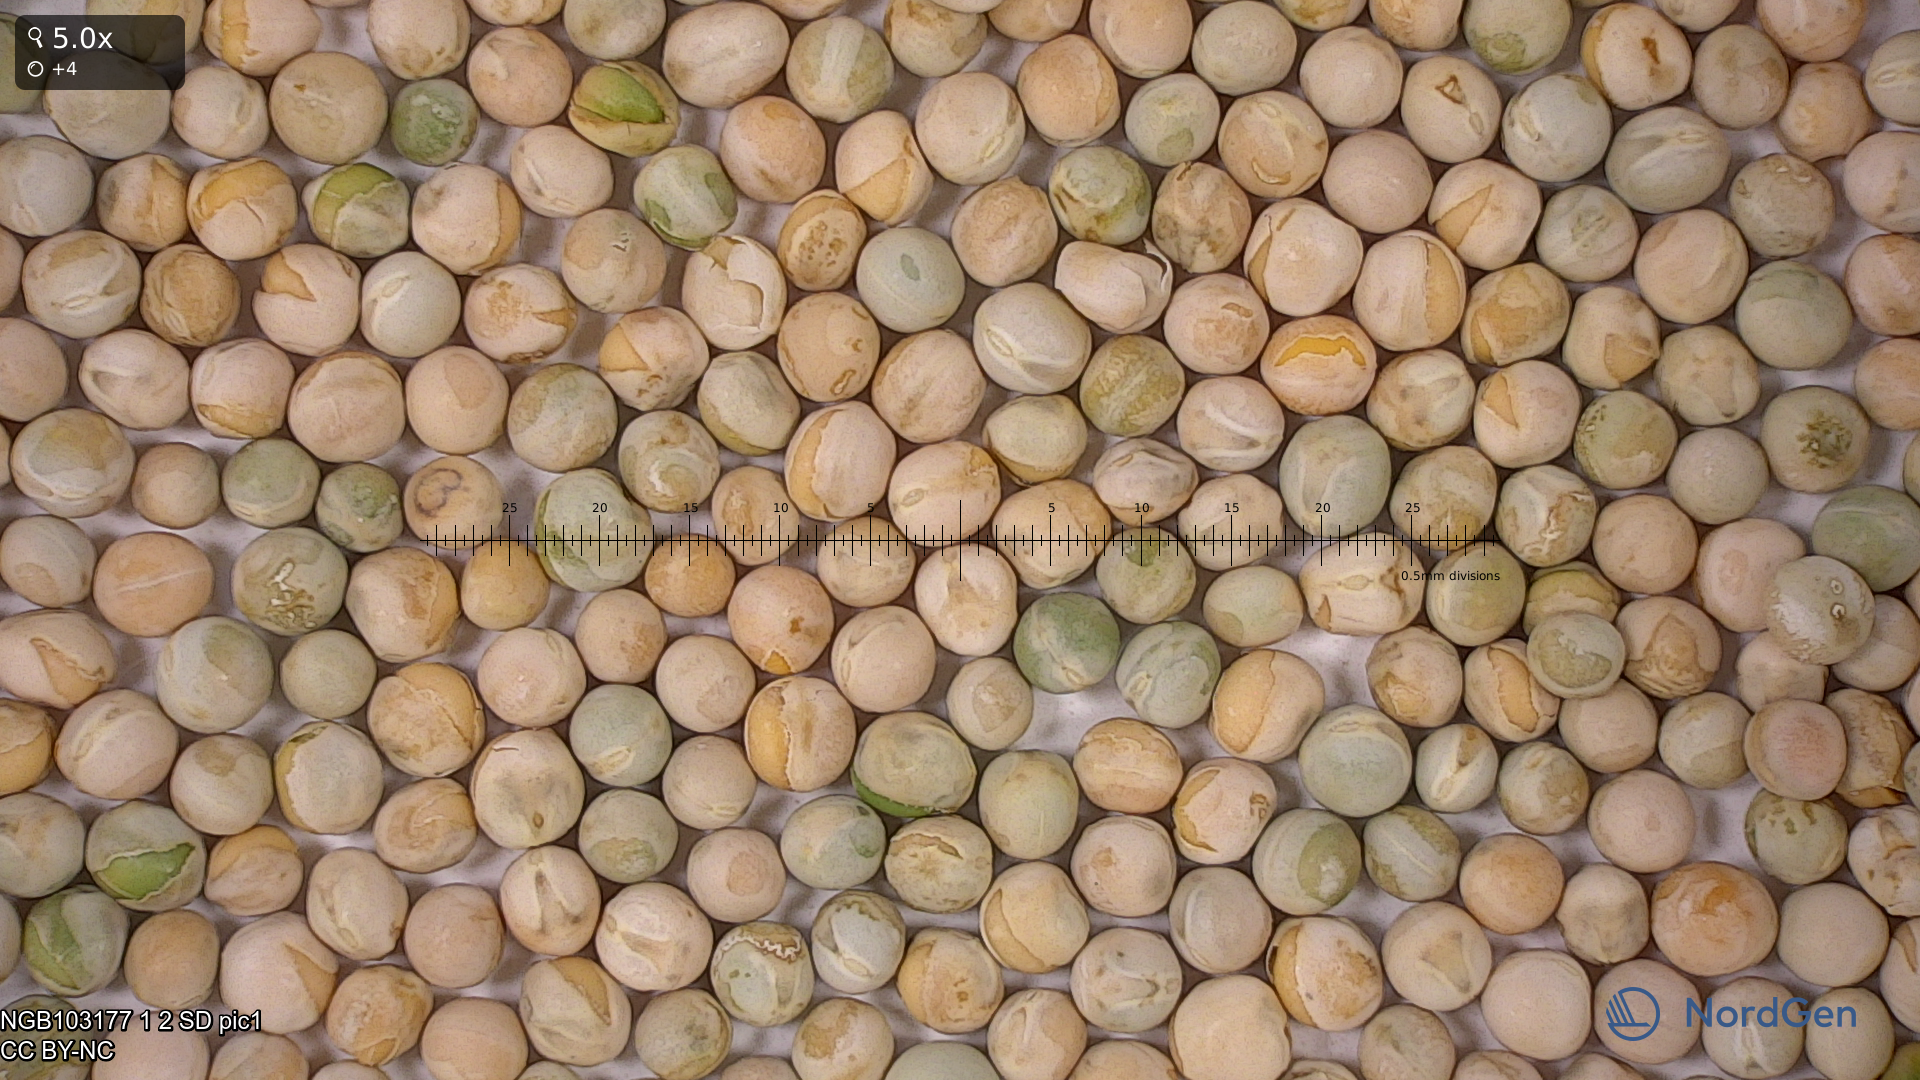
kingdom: Plantae
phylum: Tracheophyta
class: Magnoliopsida
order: Fabales
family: Fabaceae
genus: Lathyrus
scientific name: Lathyrus oleraceus
